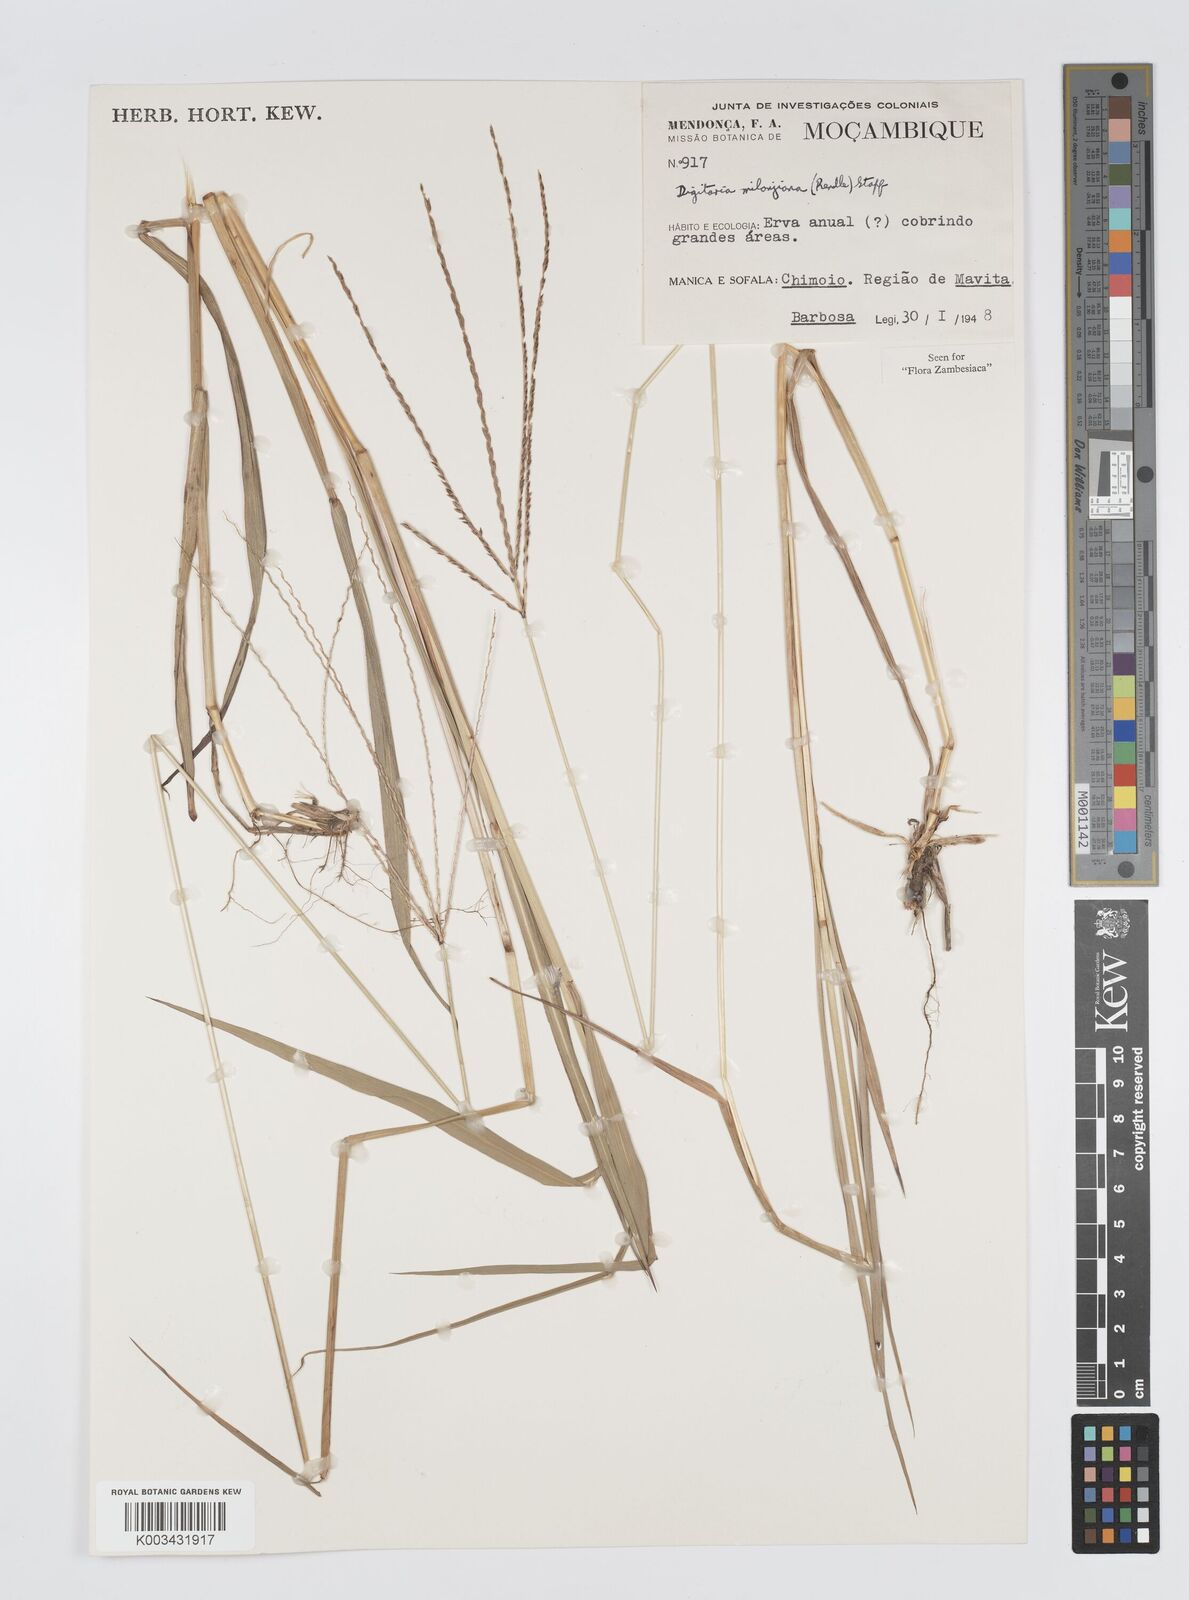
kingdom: Plantae
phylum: Tracheophyta
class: Liliopsida
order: Poales
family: Poaceae
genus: Digitaria
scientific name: Digitaria milanjiana
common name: Madagascar crabgrass
